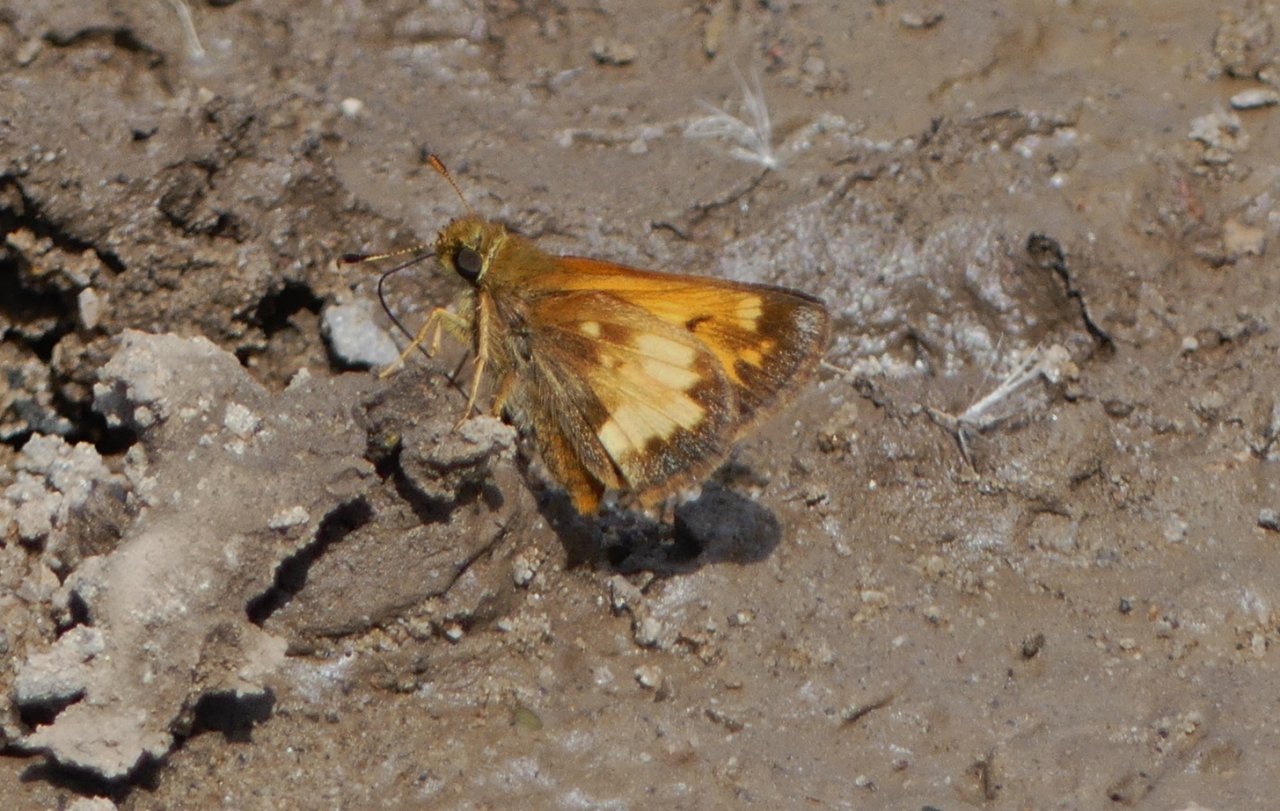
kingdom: Animalia
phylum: Arthropoda
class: Insecta
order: Lepidoptera
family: Hesperiidae
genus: Lon
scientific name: Lon hobomok
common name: Hobomok Skipper
